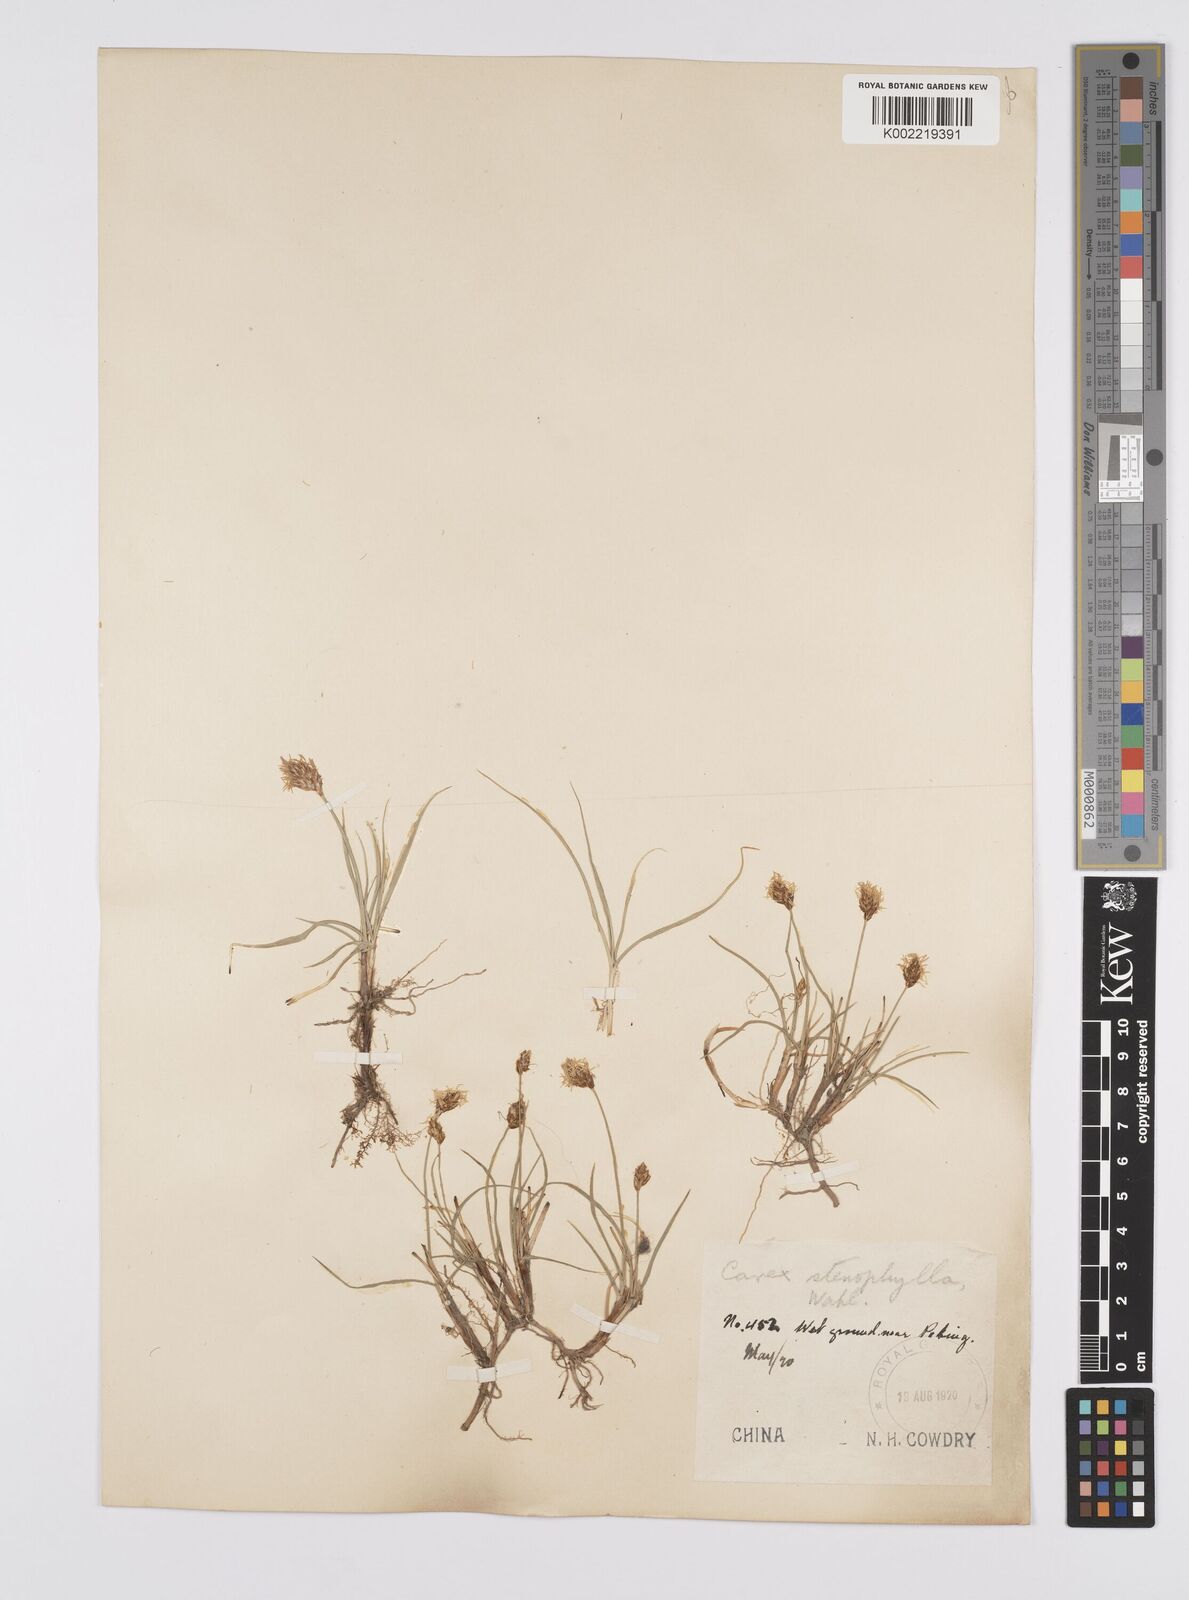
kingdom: Plantae
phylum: Tracheophyta
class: Liliopsida
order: Poales
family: Cyperaceae
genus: Carex
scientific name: Carex stenophylla
